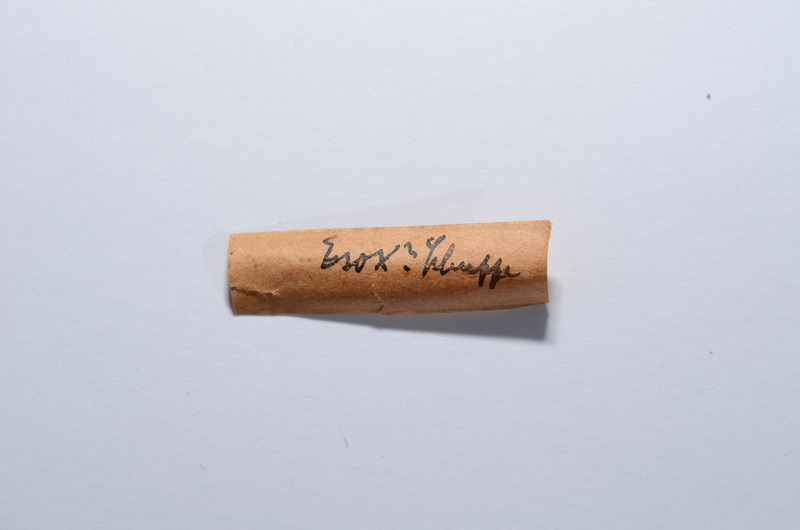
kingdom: Animalia
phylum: Chordata
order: Esociformes
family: Esocidae
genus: Esox
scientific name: Esox
